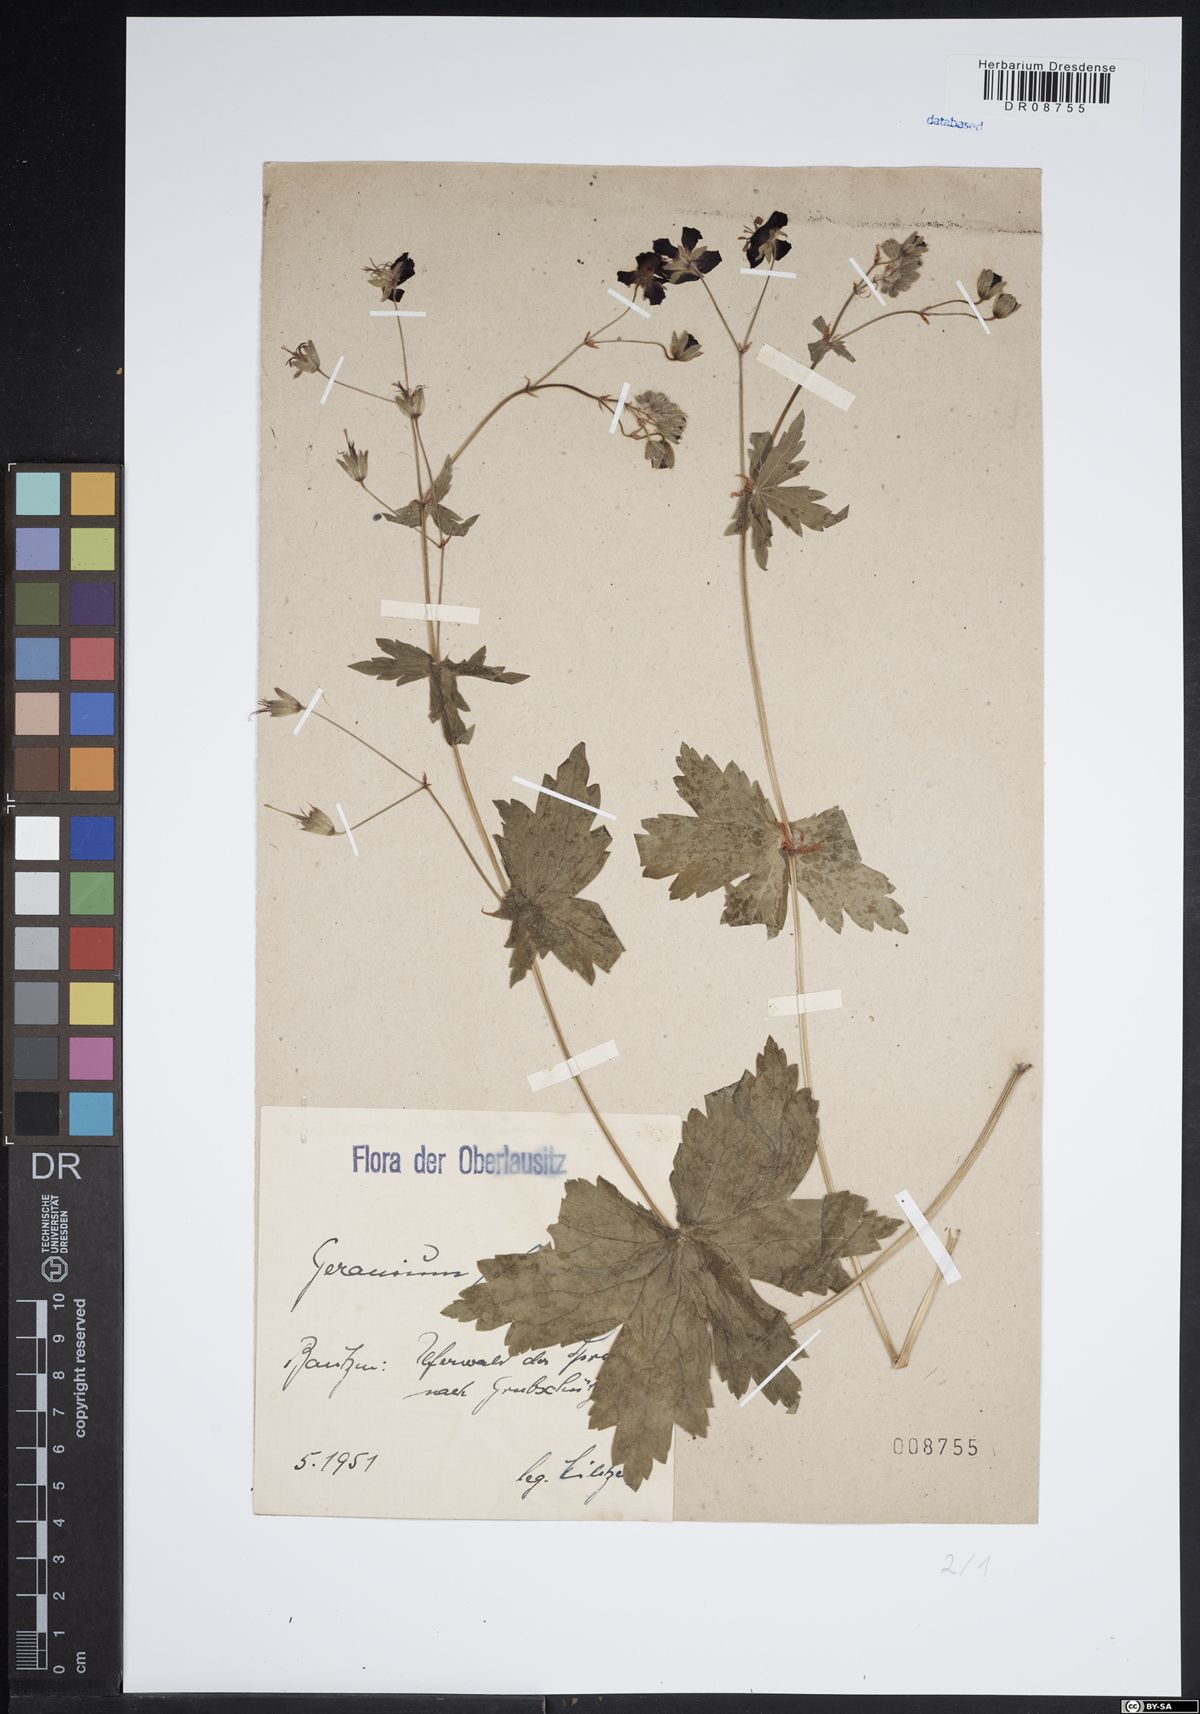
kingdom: Plantae
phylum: Tracheophyta
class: Magnoliopsida
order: Geraniales
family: Geraniaceae
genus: Geranium
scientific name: Geranium phaeum
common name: Dusky crane's-bill
